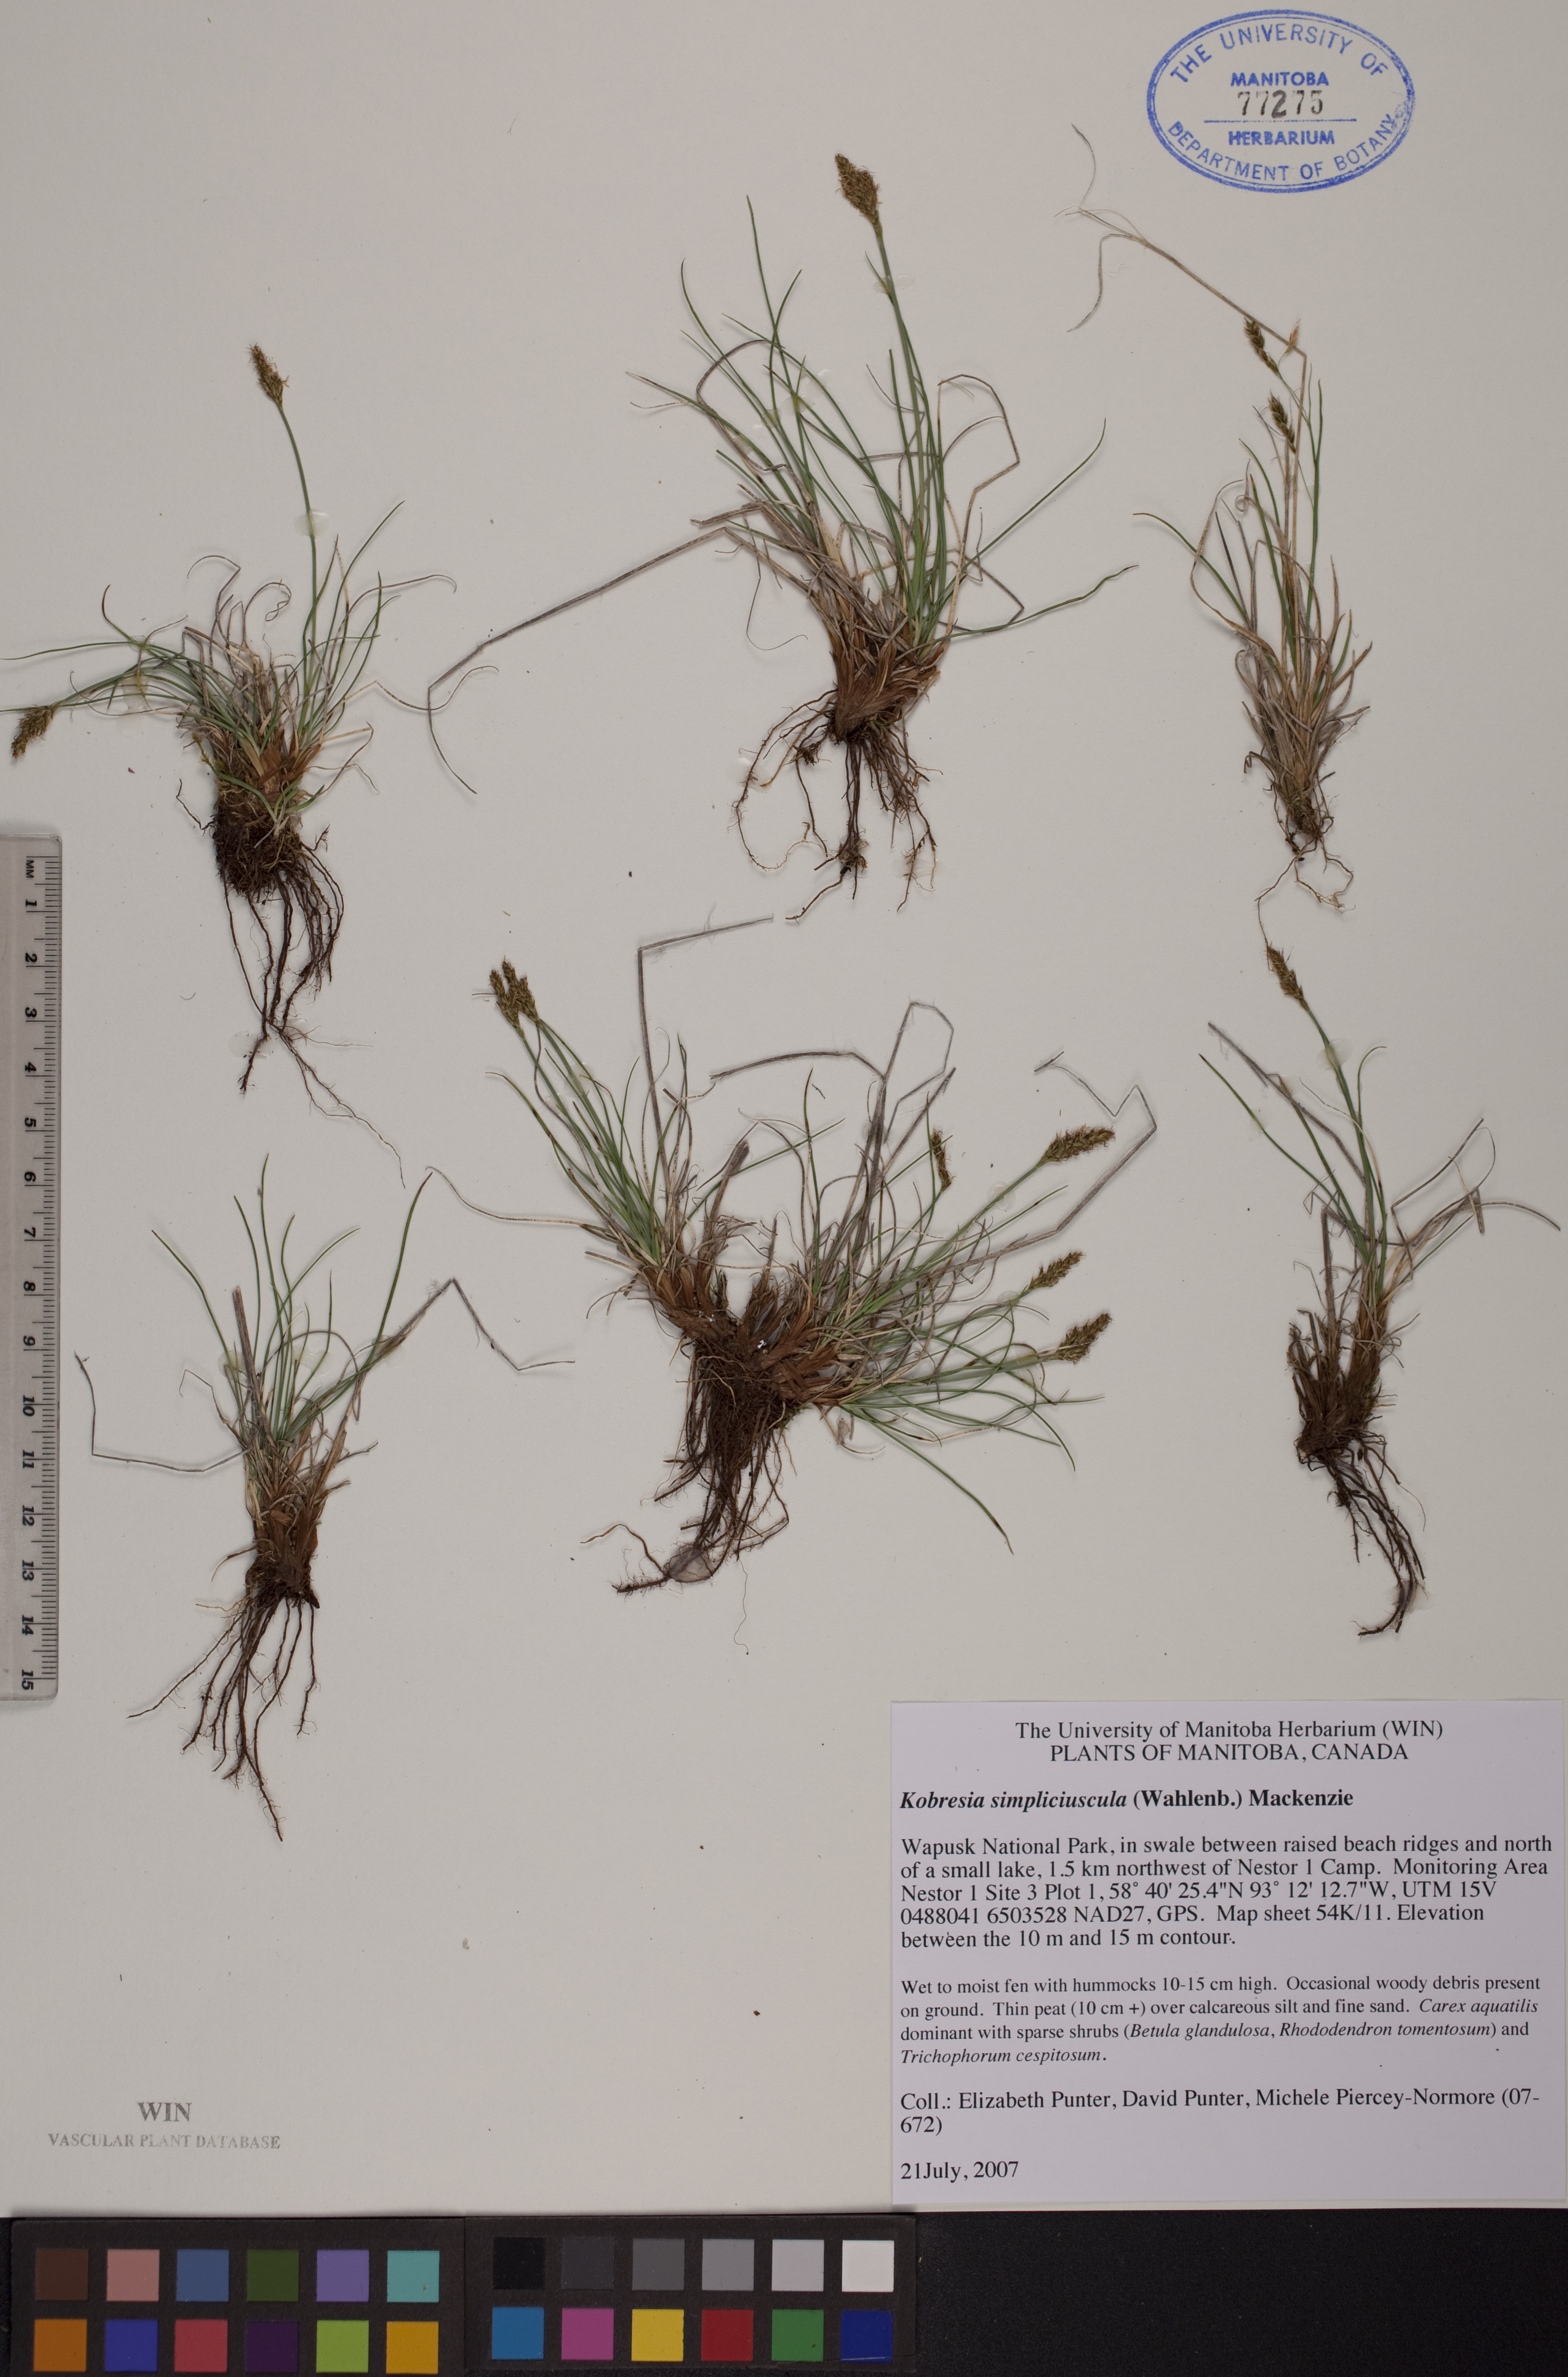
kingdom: Plantae
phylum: Tracheophyta
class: Liliopsida
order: Poales
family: Cyperaceae
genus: Carex
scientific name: Carex simpliciuscula
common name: Simple bog sedge
